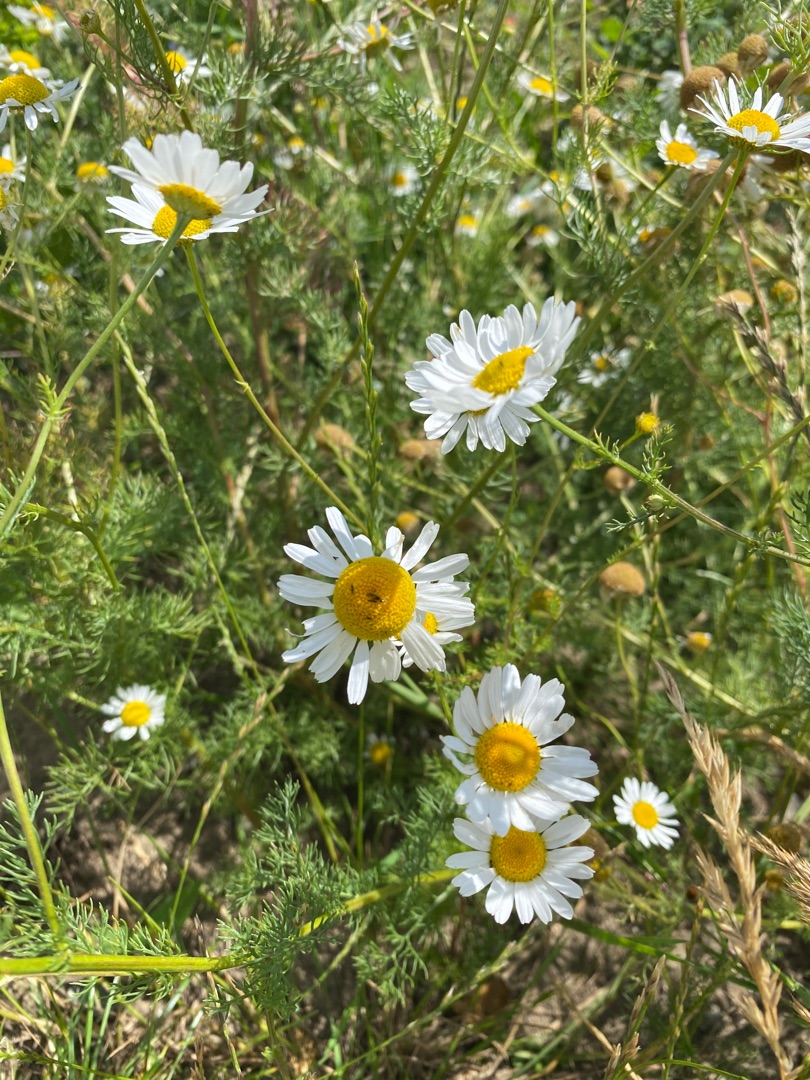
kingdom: Plantae
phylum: Tracheophyta
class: Magnoliopsida
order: Asterales
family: Asteraceae
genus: Tripleurospermum
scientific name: Tripleurospermum inodorum
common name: Lugtløs kamille
